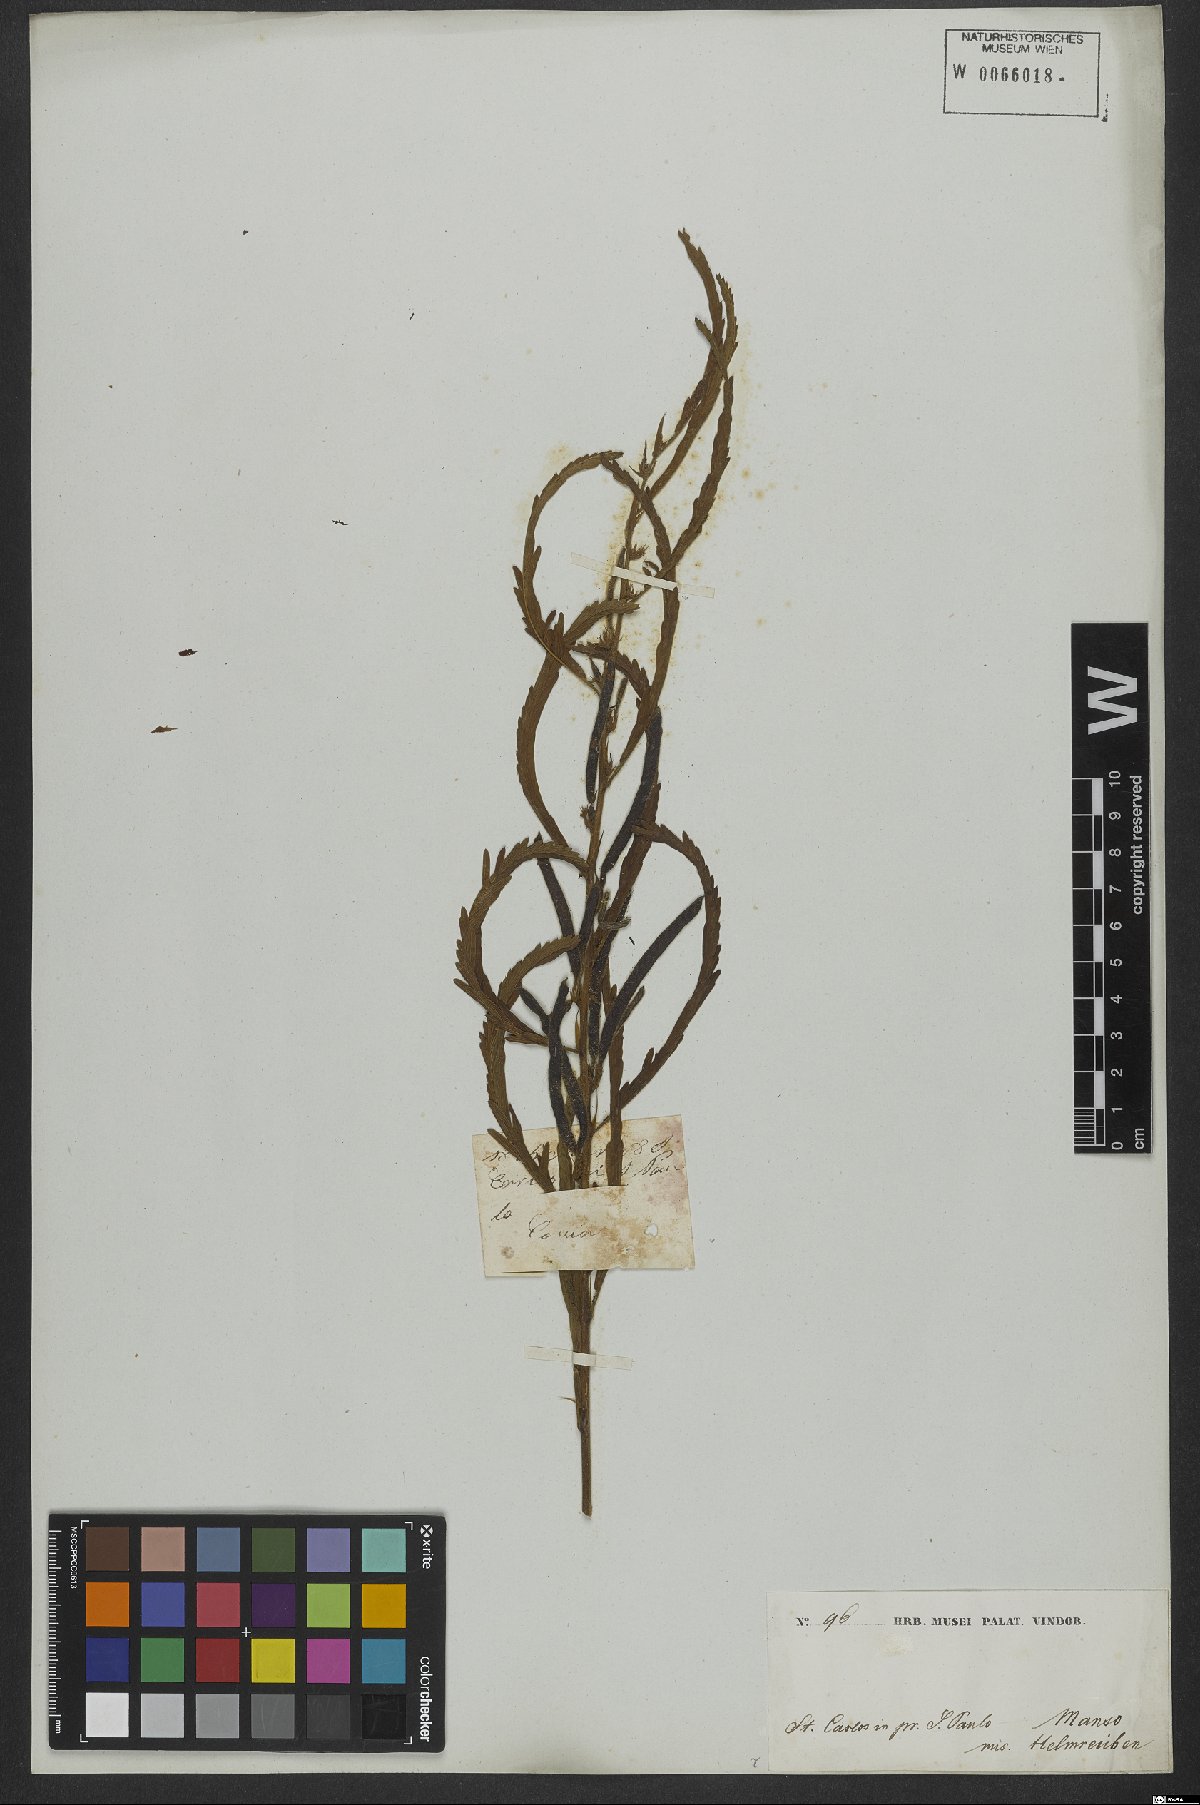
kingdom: Plantae
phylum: Tracheophyta
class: Magnoliopsida
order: Fabales
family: Fabaceae
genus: Chamaecrista
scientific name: Chamaecrista calycioides
